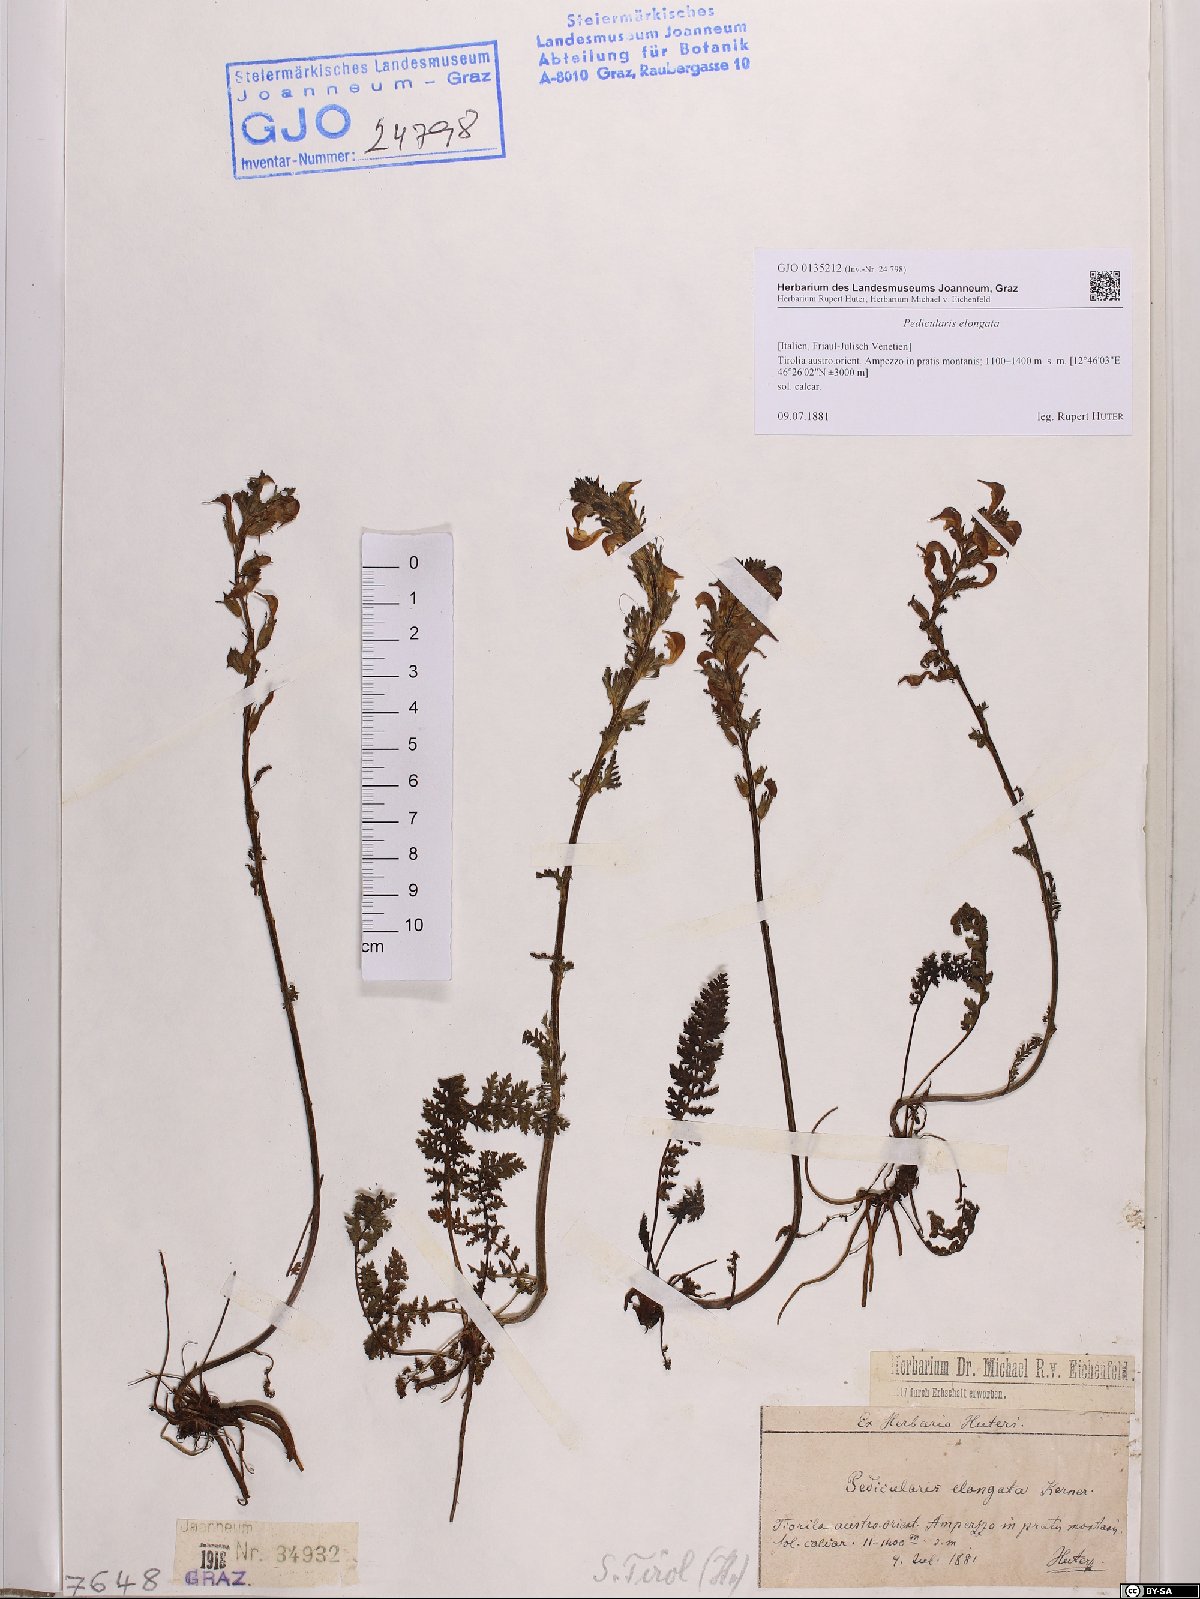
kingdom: Plantae
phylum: Tracheophyta
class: Magnoliopsida
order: Lamiales
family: Orobanchaceae
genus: Pedicularis
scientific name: Pedicularis elongata
